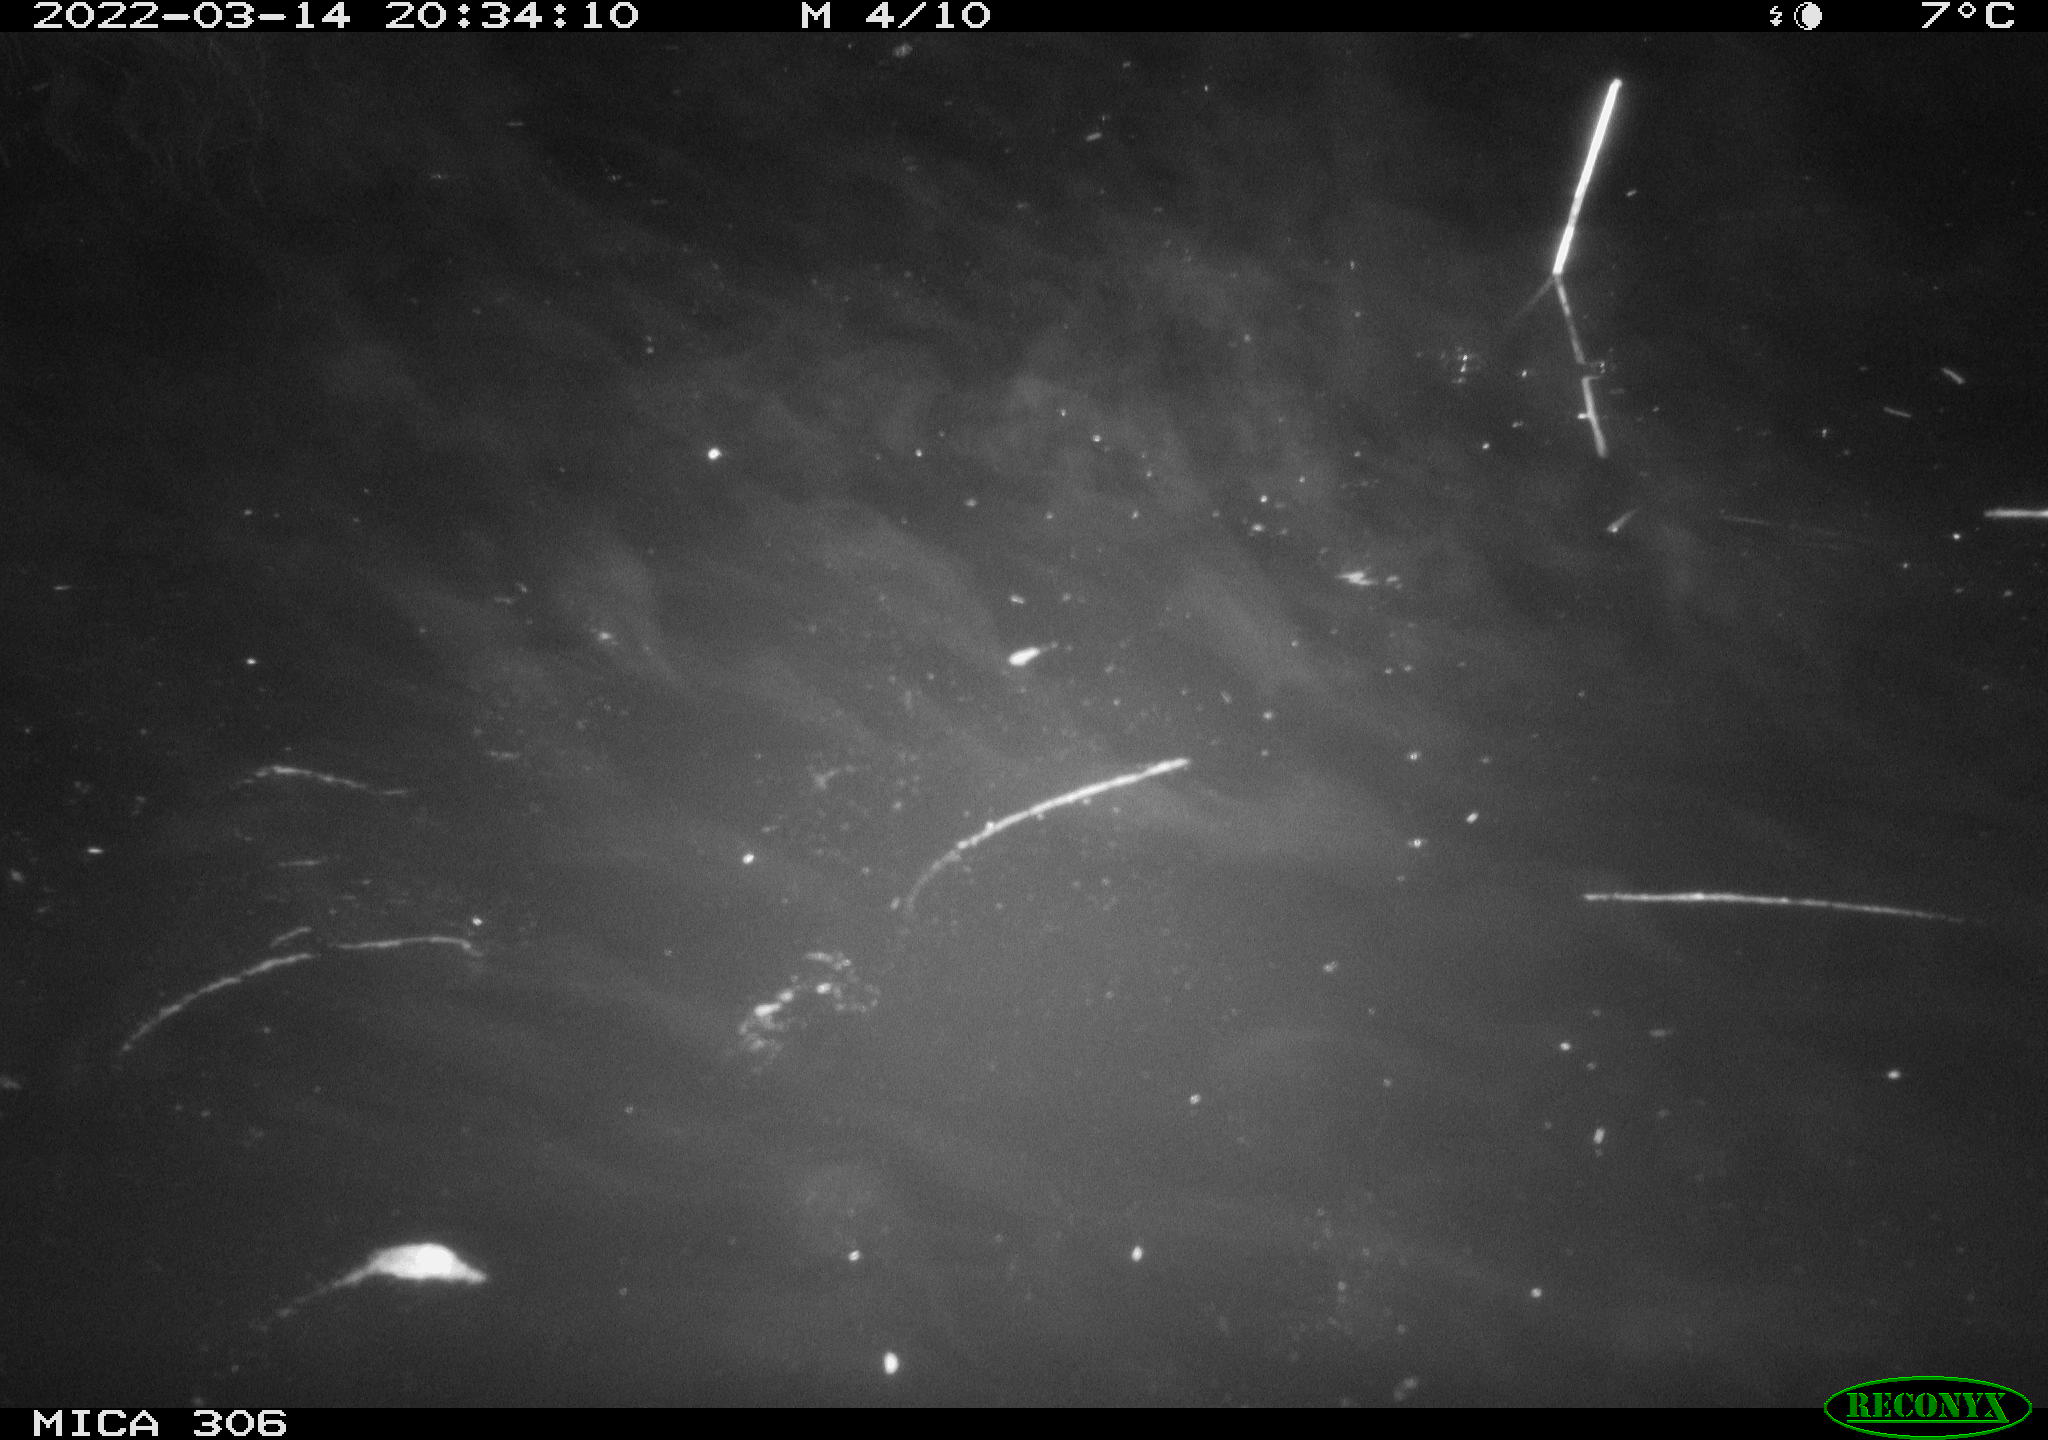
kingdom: Animalia
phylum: Chordata
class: Mammalia
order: Rodentia
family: Muridae
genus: Rattus
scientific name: Rattus norvegicus
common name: Brown rat
